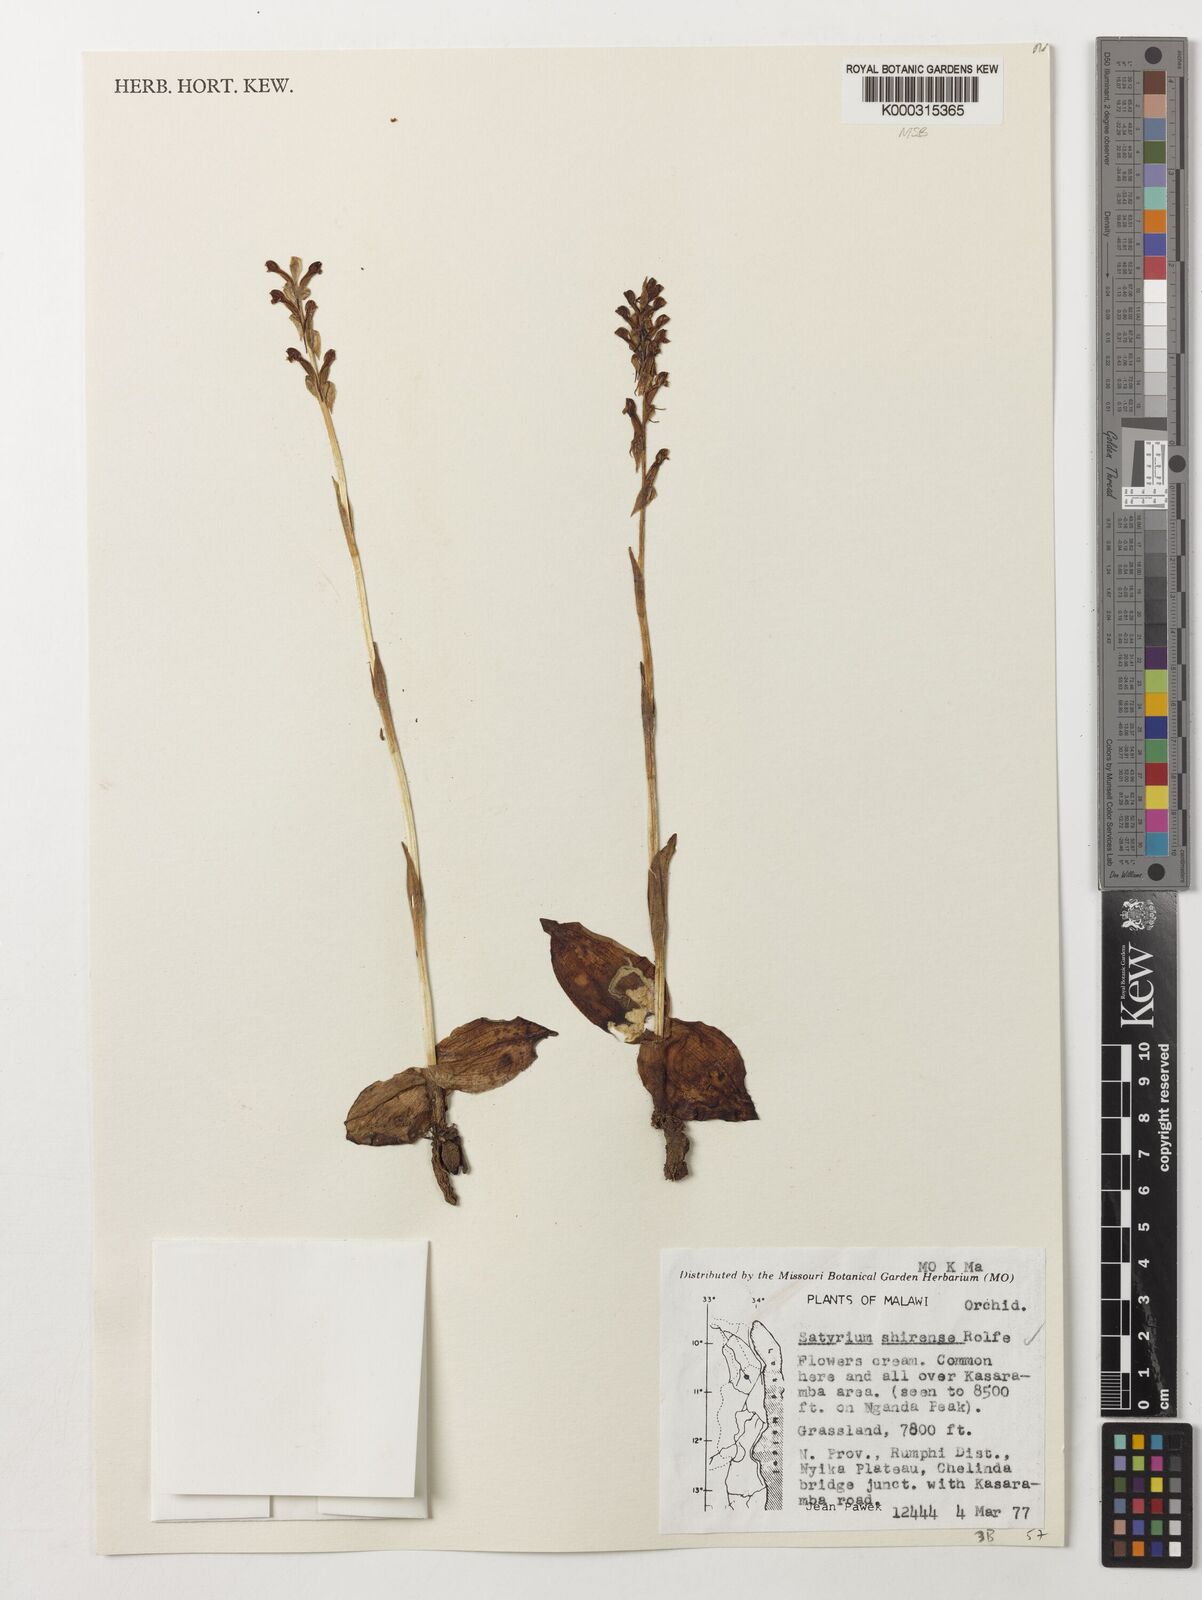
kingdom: Plantae
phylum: Tracheophyta
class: Liliopsida
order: Asparagales
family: Orchidaceae
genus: Satyrium
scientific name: Satyrium shirense
